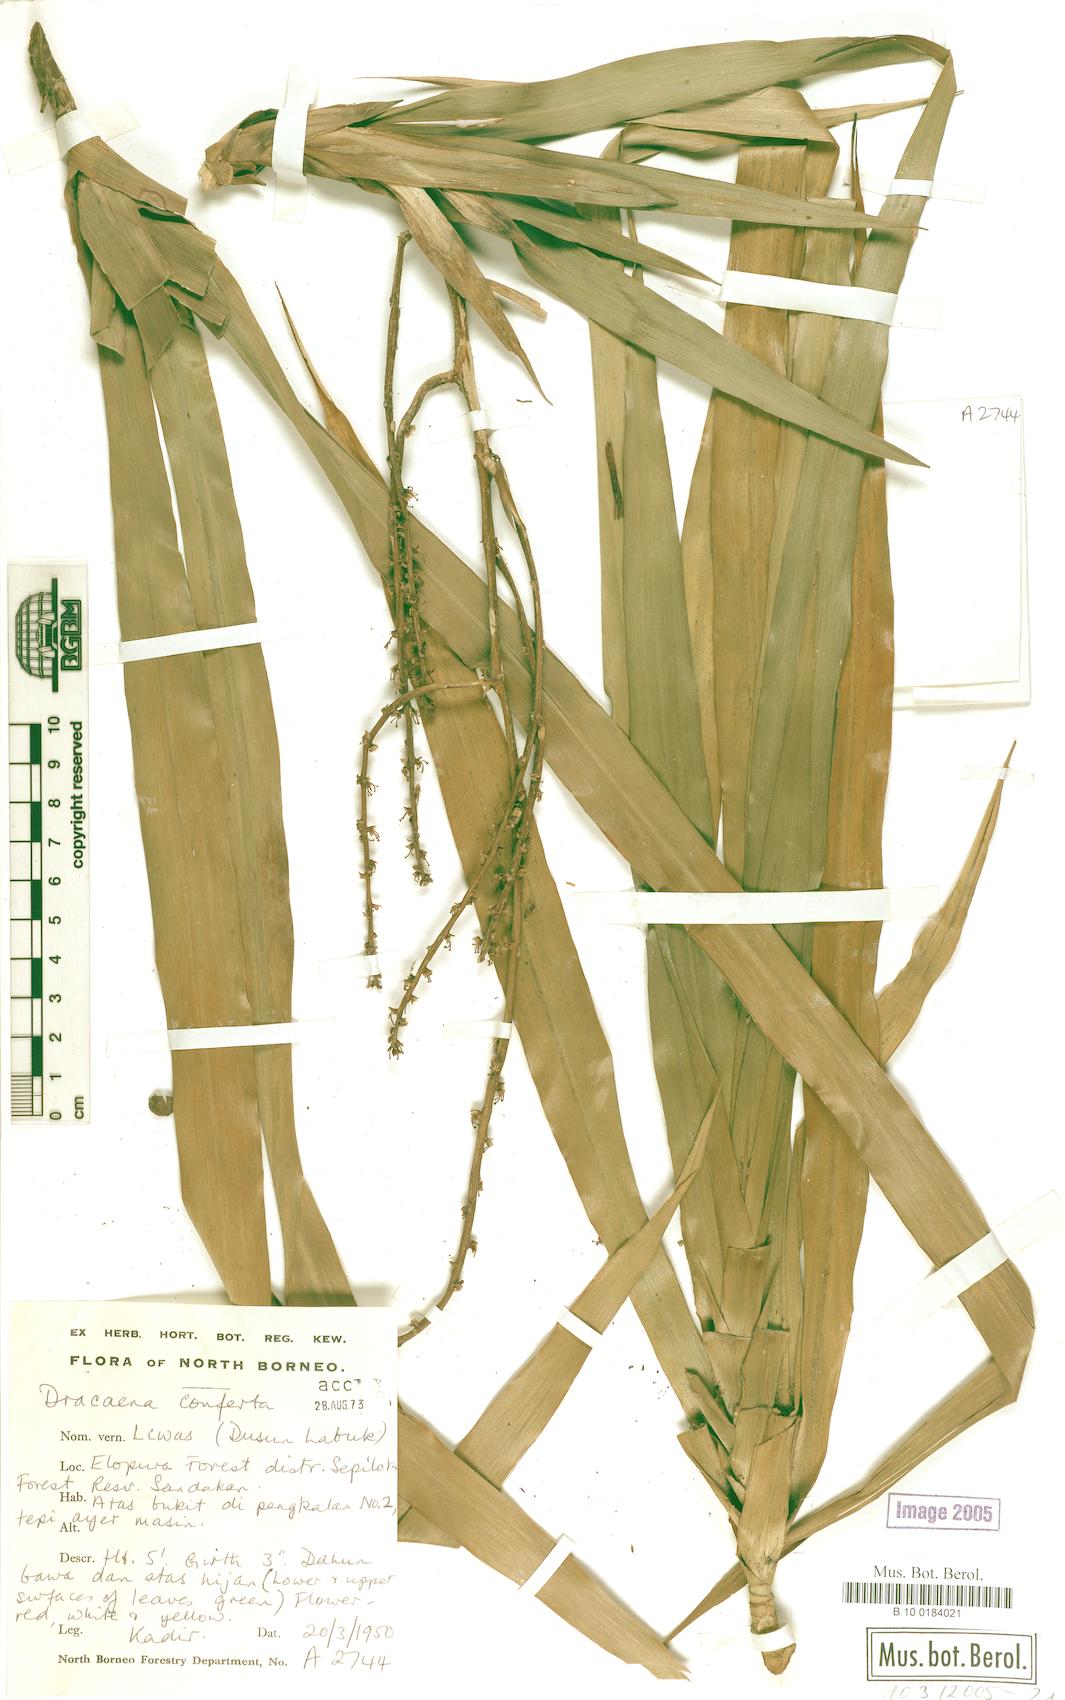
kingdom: Plantae
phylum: Tracheophyta
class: Liliopsida
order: Asparagales
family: Asparagaceae
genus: Dracaena
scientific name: Dracaena conferta
